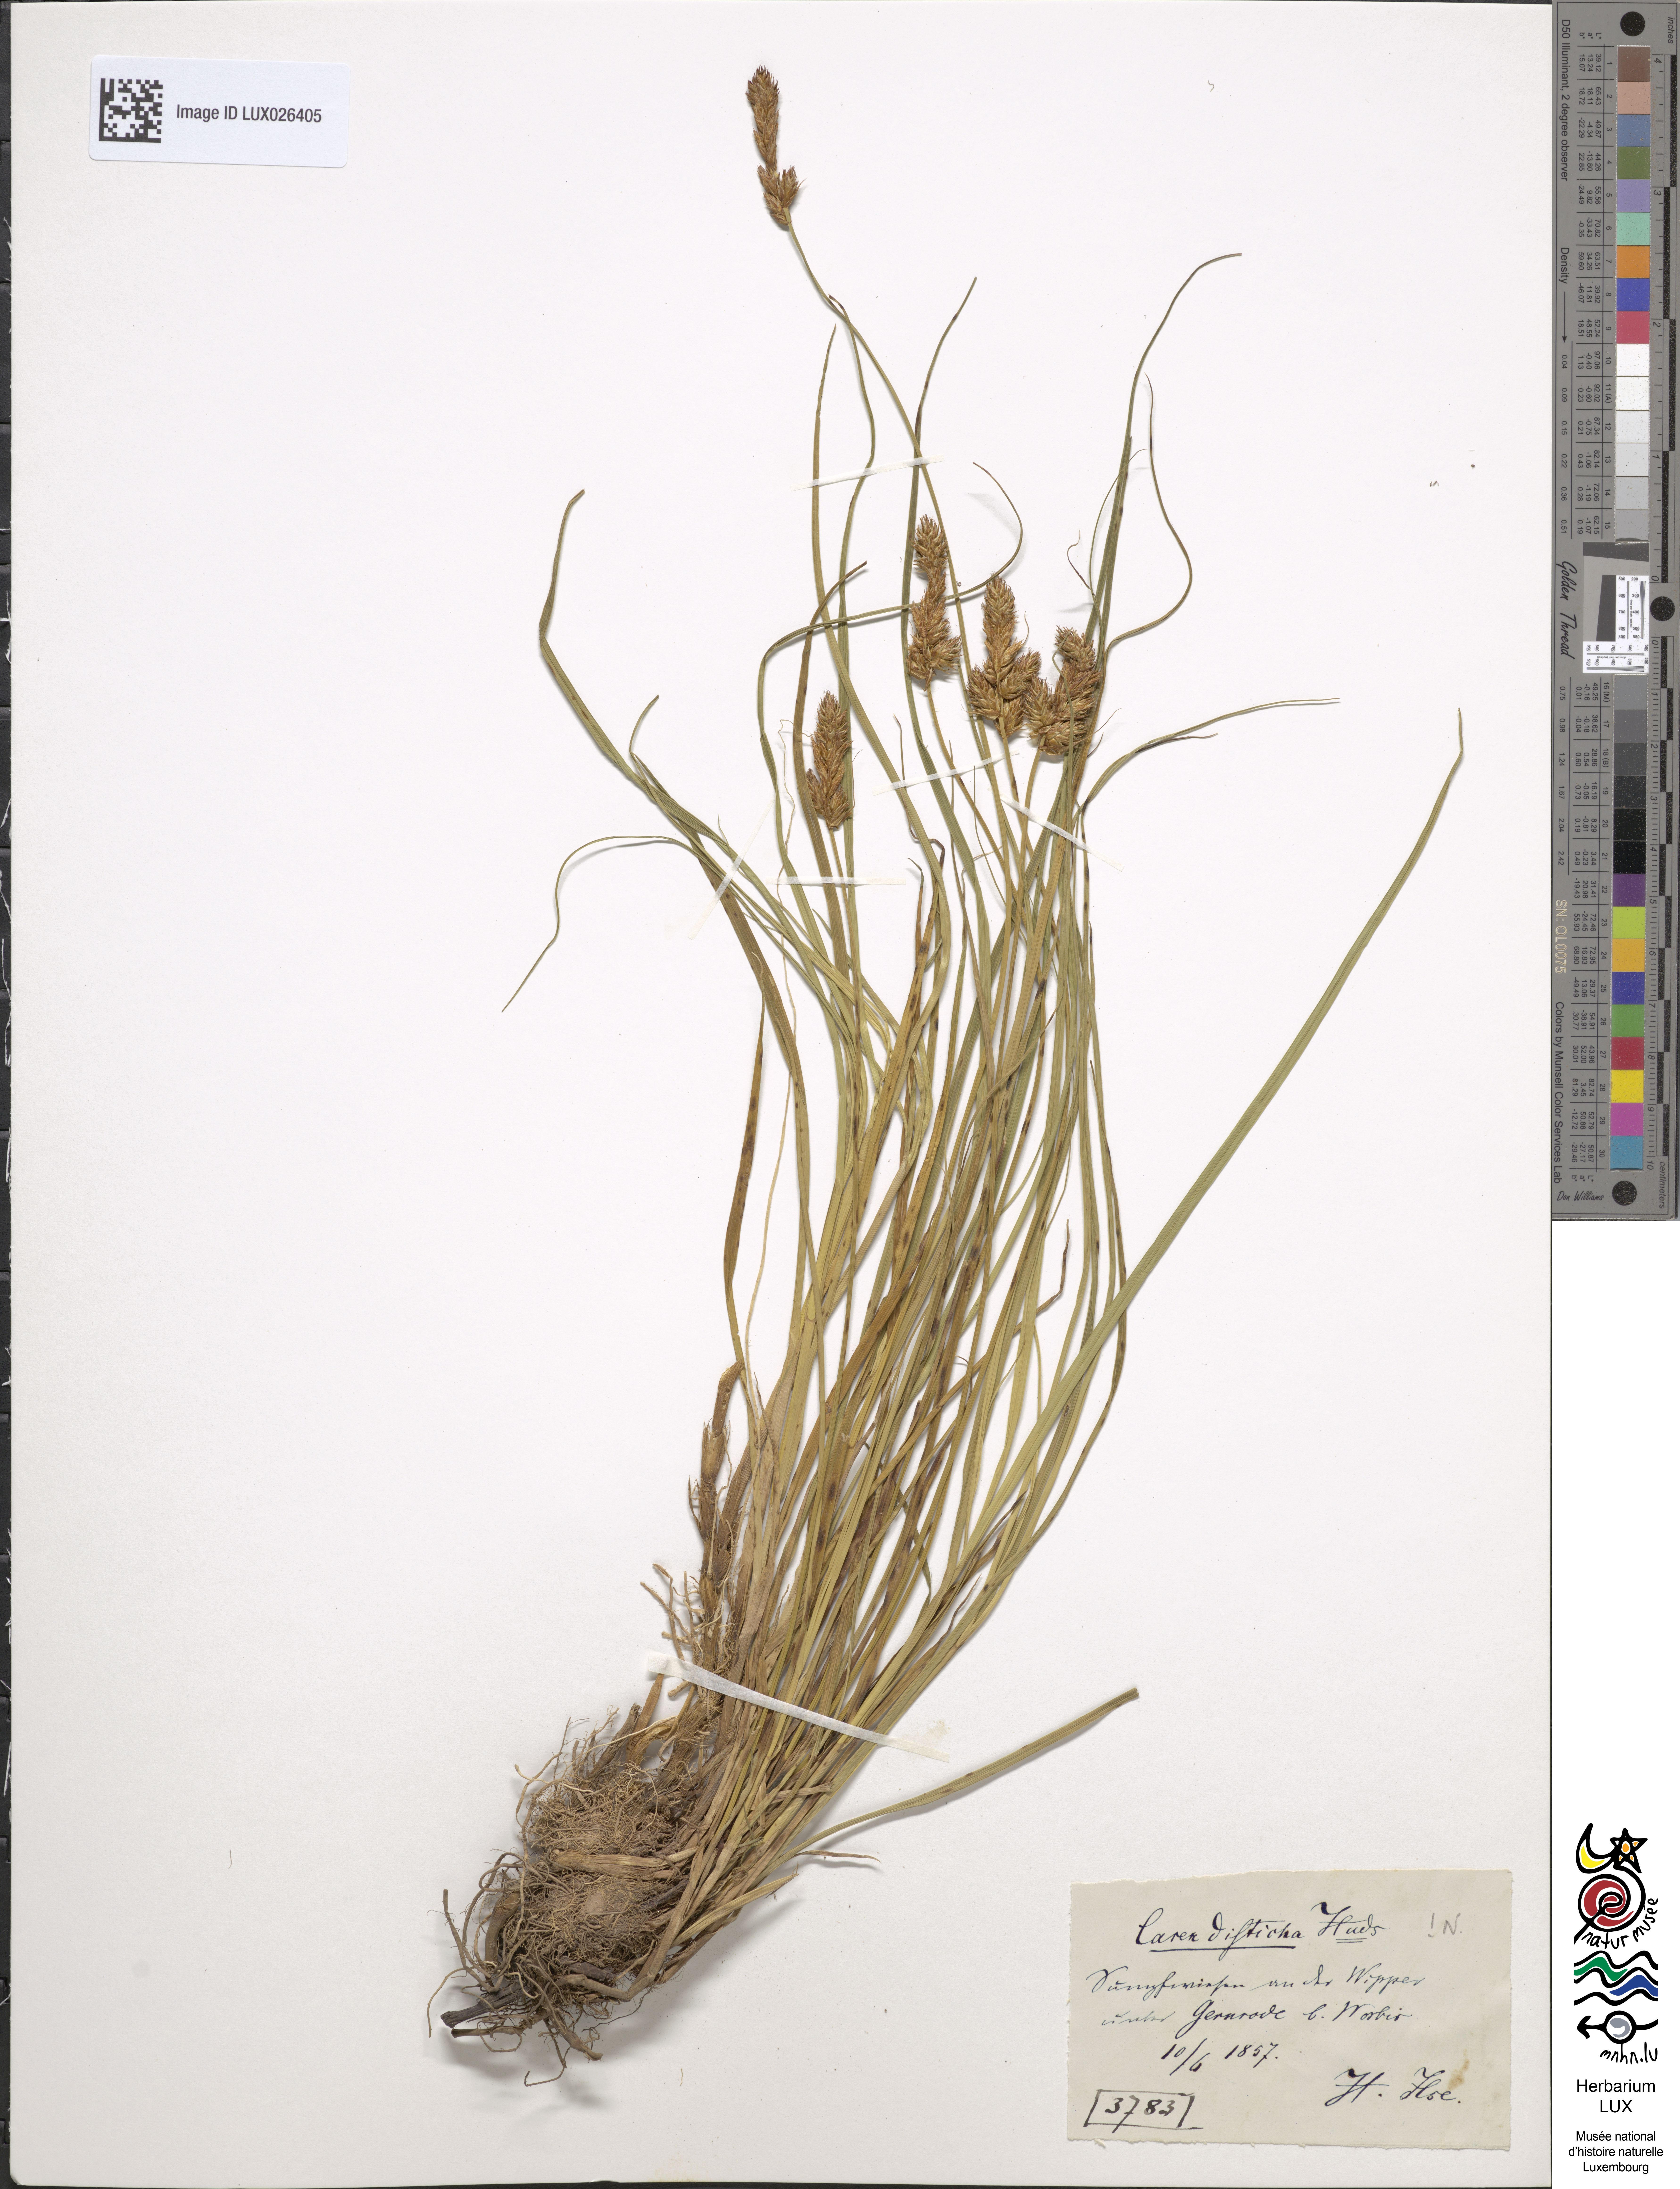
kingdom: Plantae
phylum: Tracheophyta
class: Liliopsida
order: Poales
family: Cyperaceae
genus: Carex
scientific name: Carex disticha
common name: Brown sedge
